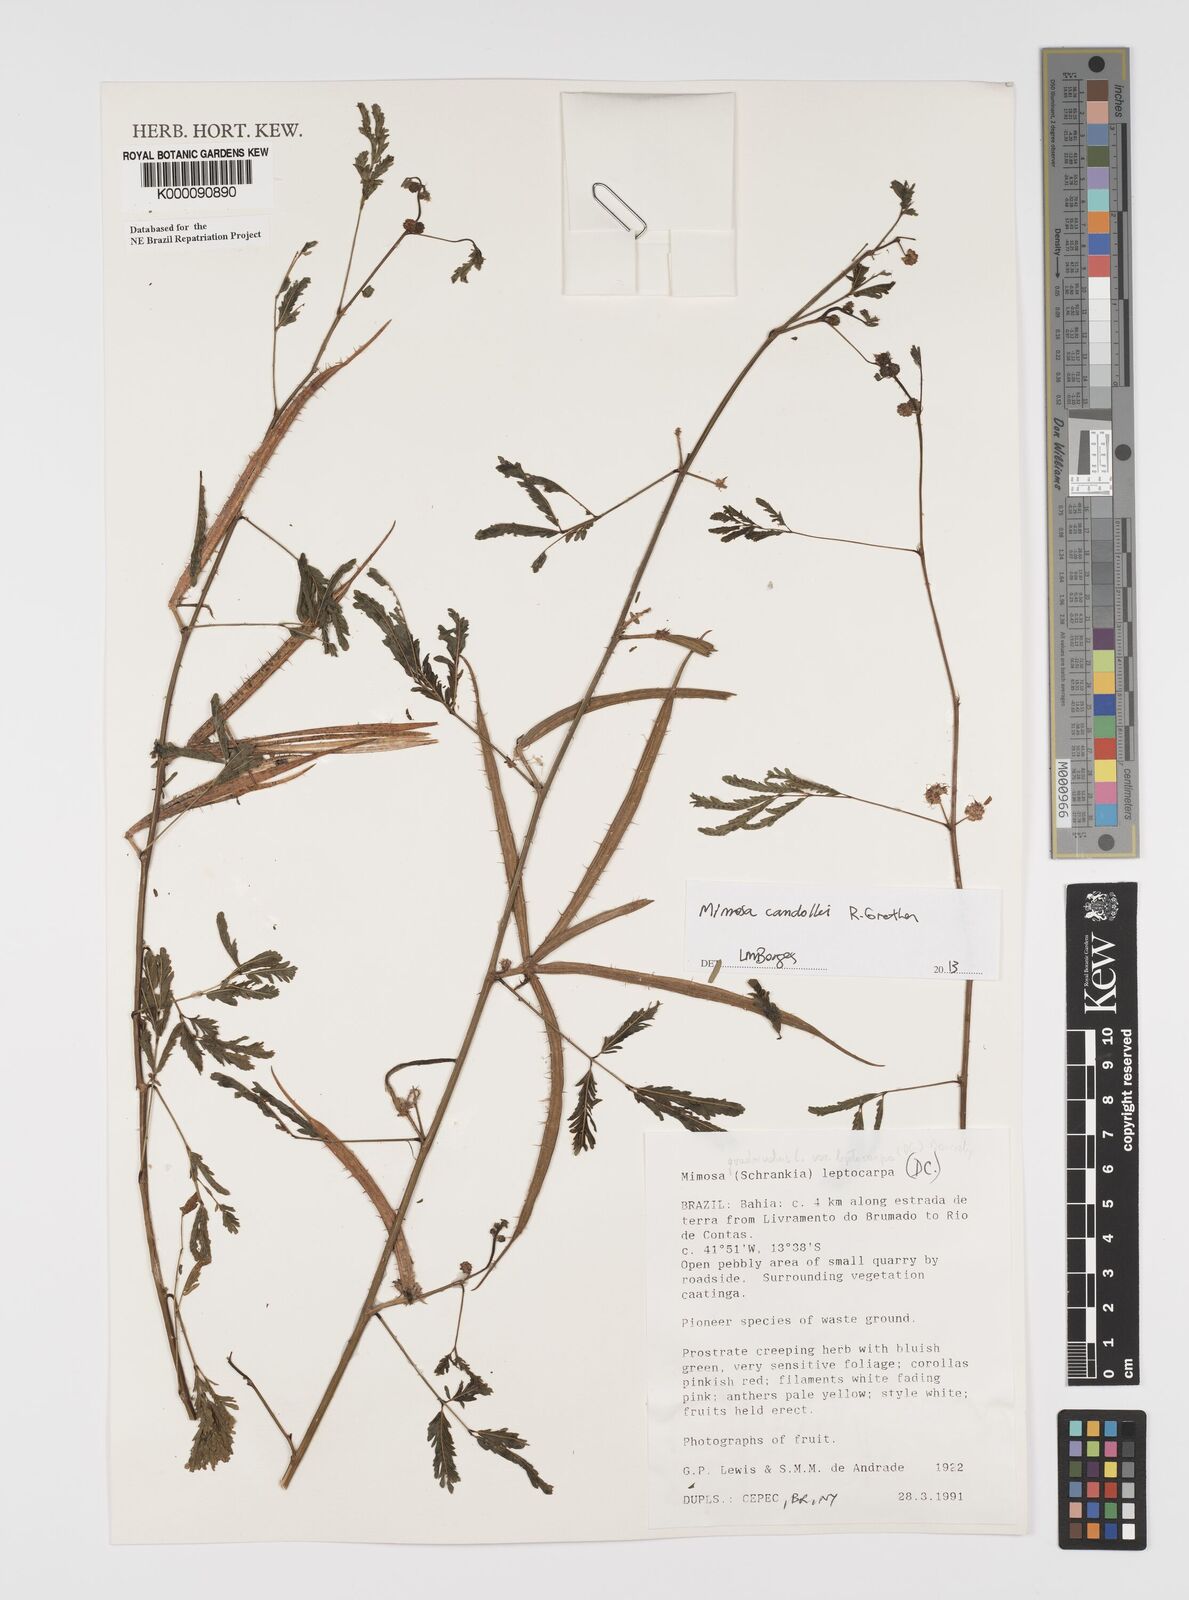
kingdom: Plantae
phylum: Tracheophyta
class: Magnoliopsida
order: Fabales
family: Fabaceae
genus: Mimosa
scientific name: Mimosa candollei
